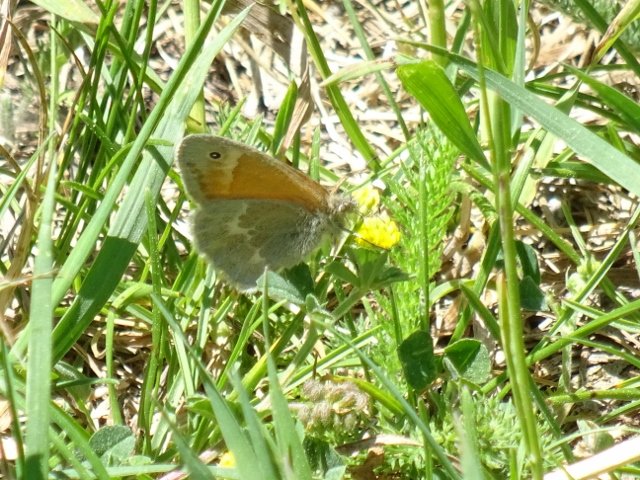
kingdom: Animalia
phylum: Arthropoda
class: Insecta
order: Lepidoptera
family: Nymphalidae
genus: Coenonympha
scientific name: Coenonympha tullia
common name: Large Heath
